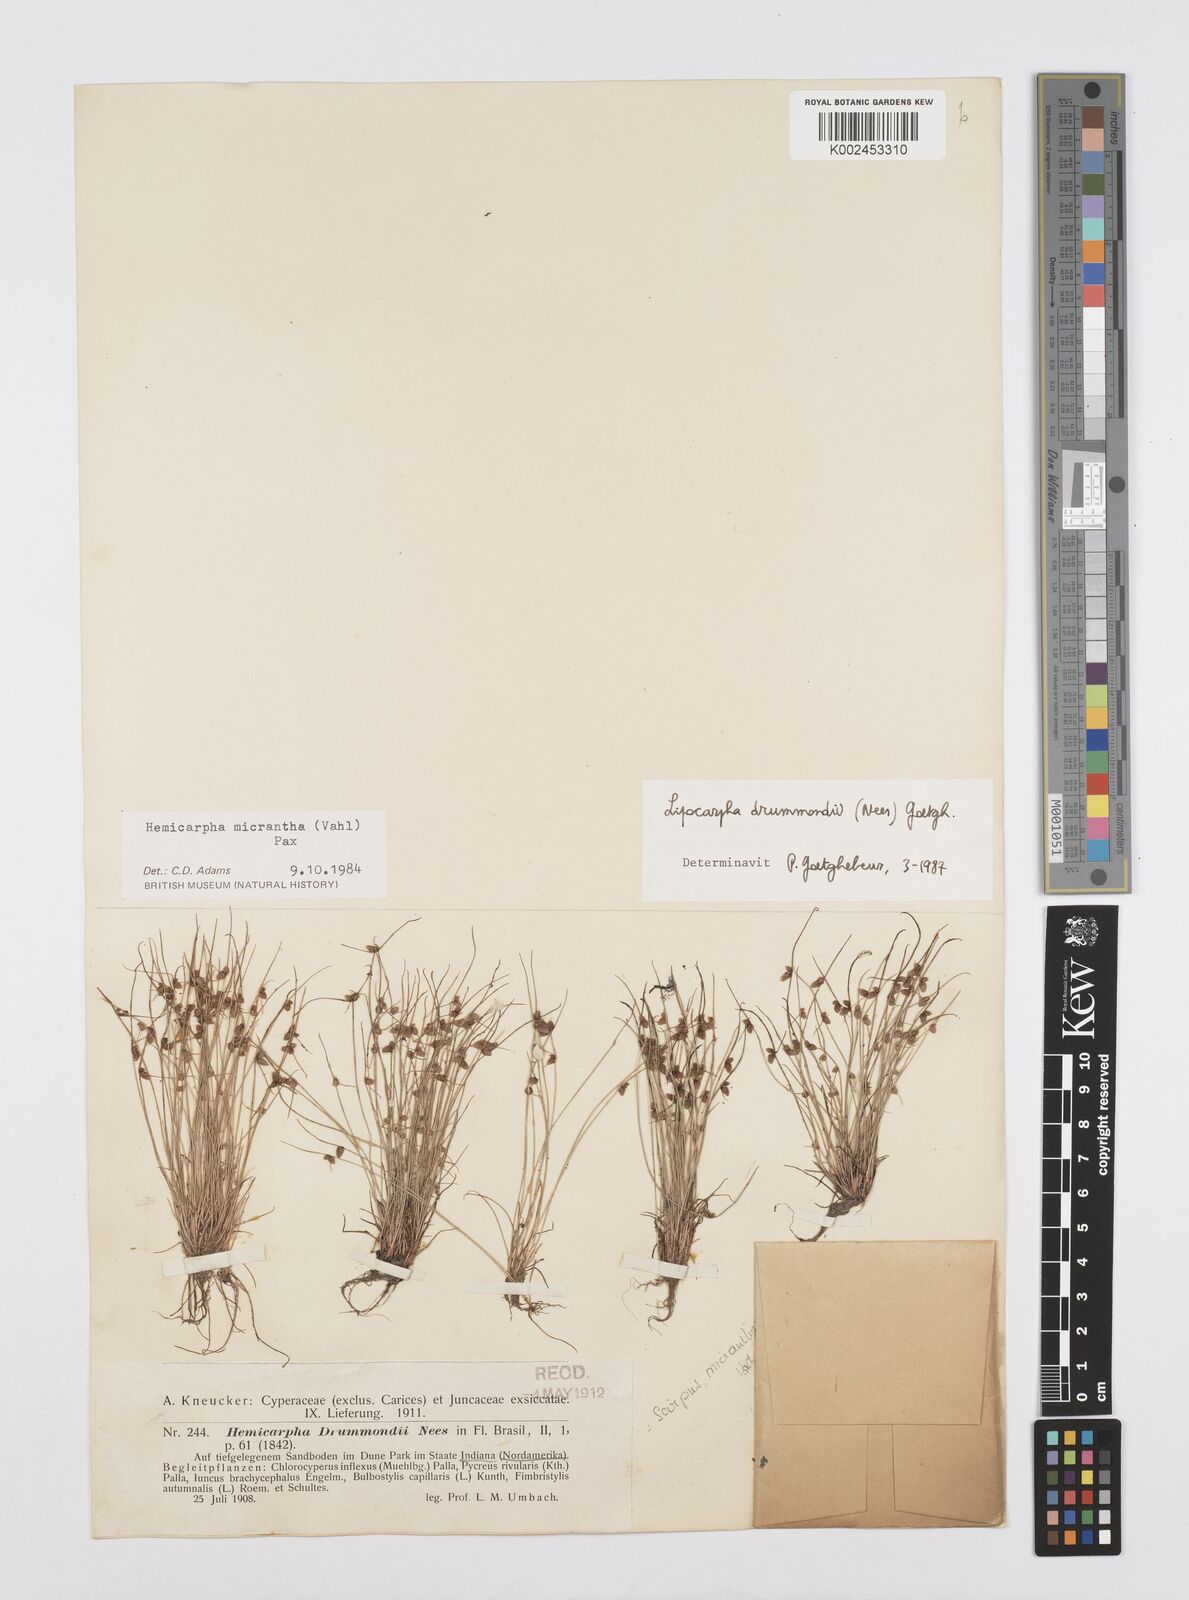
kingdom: Plantae
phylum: Tracheophyta
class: Liliopsida
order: Poales
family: Cyperaceae
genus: Cyperus
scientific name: Cyperus drummondii
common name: Green flat sedge
